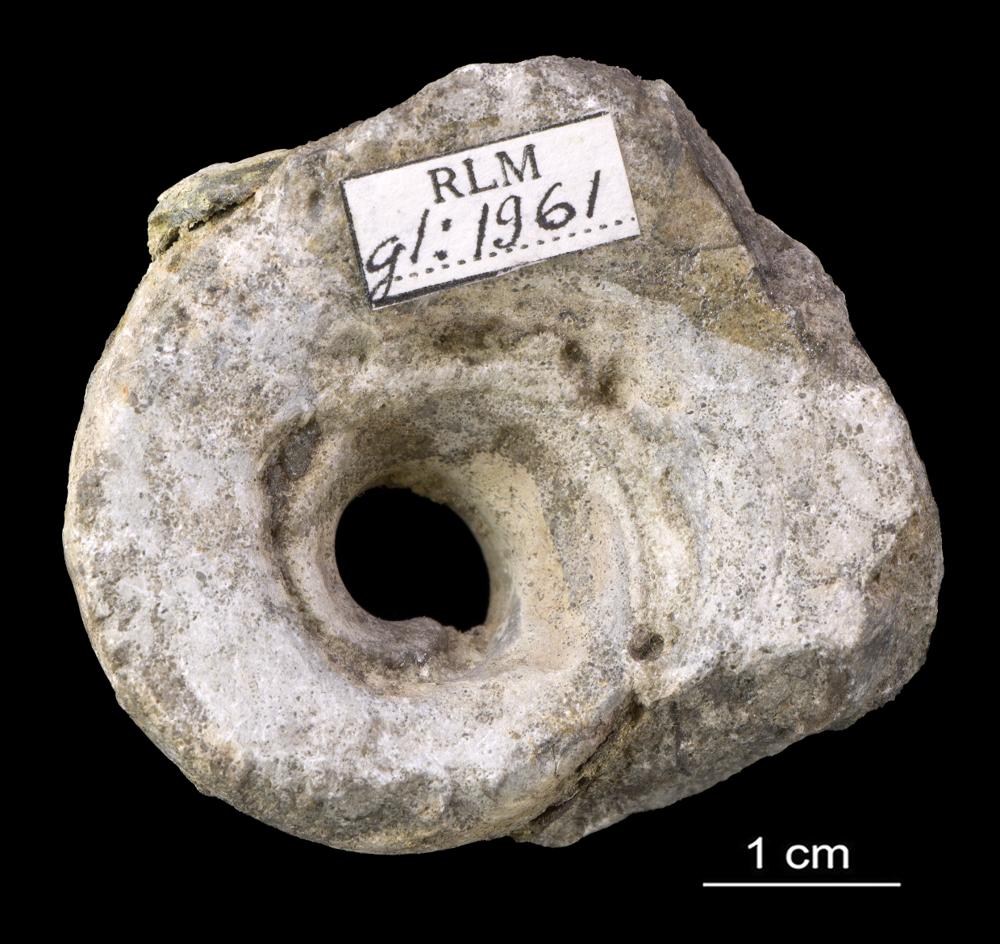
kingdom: Animalia
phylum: Mollusca
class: Gastropoda
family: Lesueurillidae
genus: Lesueurilla
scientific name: Lesueurilla Maclurea infundibulum
